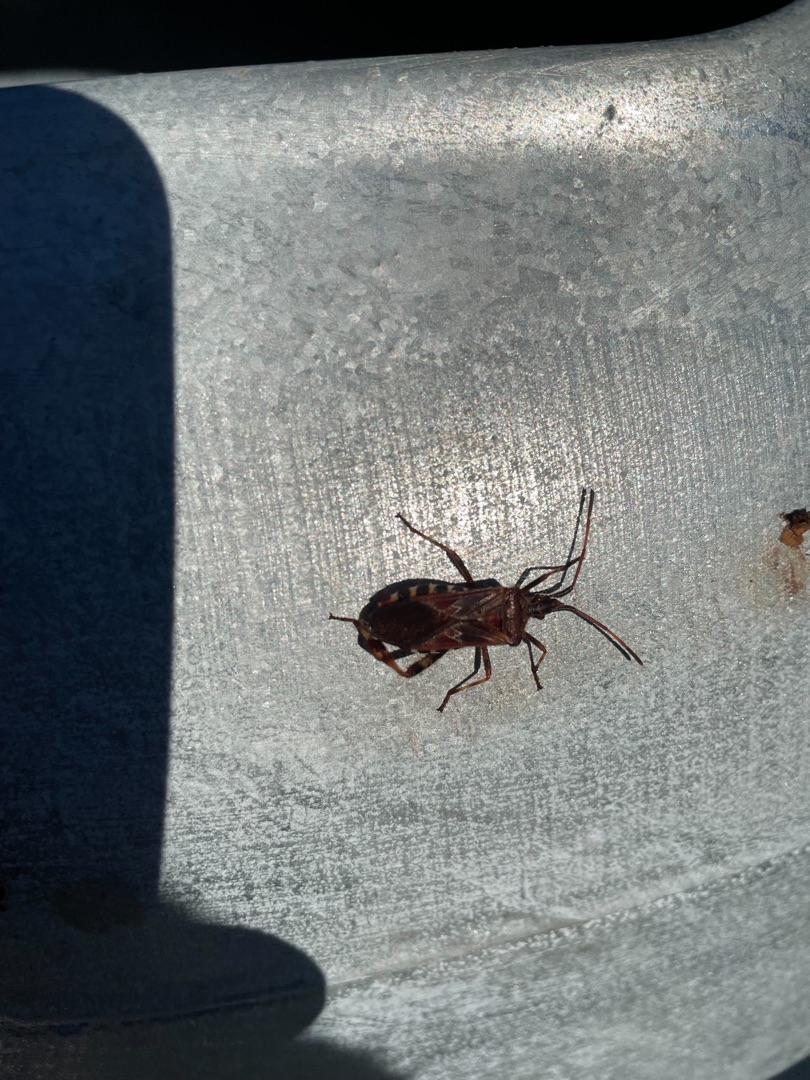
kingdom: Animalia
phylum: Arthropoda
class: Insecta
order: Hemiptera
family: Coreidae
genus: Leptoglossus
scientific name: Leptoglossus occidentalis
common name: Amerikansk fyrretæge
